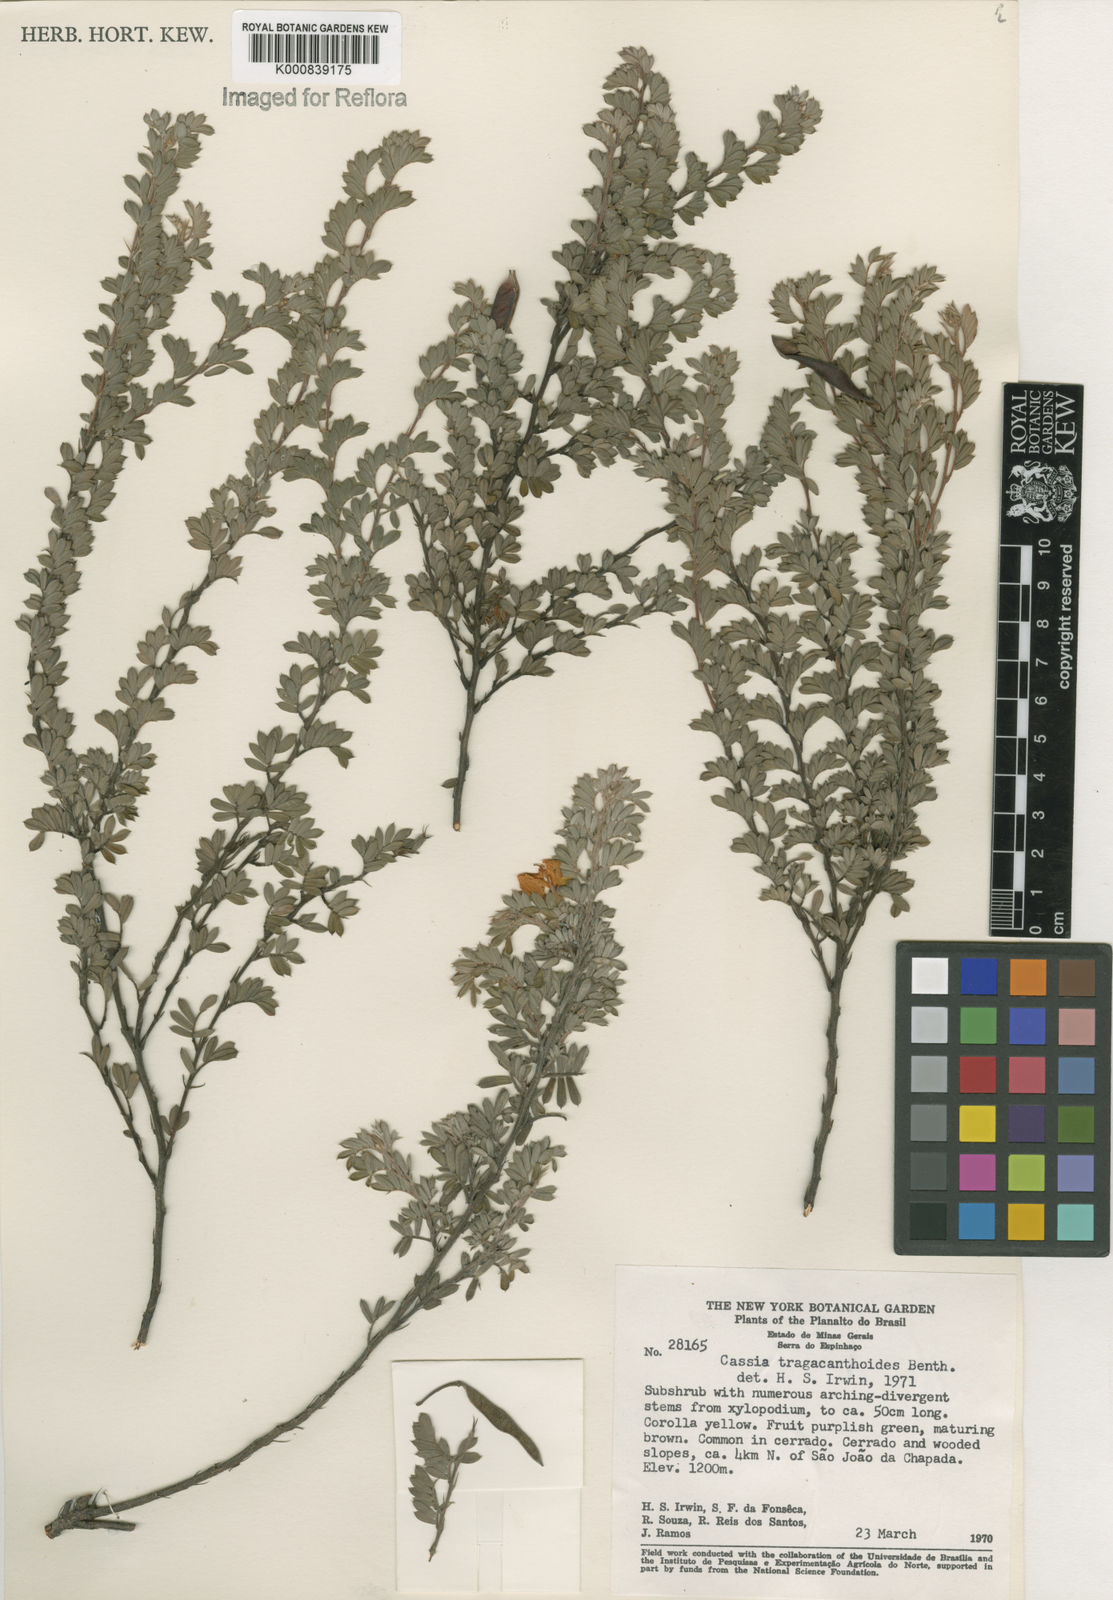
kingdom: Plantae
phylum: Tracheophyta
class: Magnoliopsida
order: Fabales
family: Fabaceae
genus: Chamaecrista
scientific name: Chamaecrista tragacanthoides
